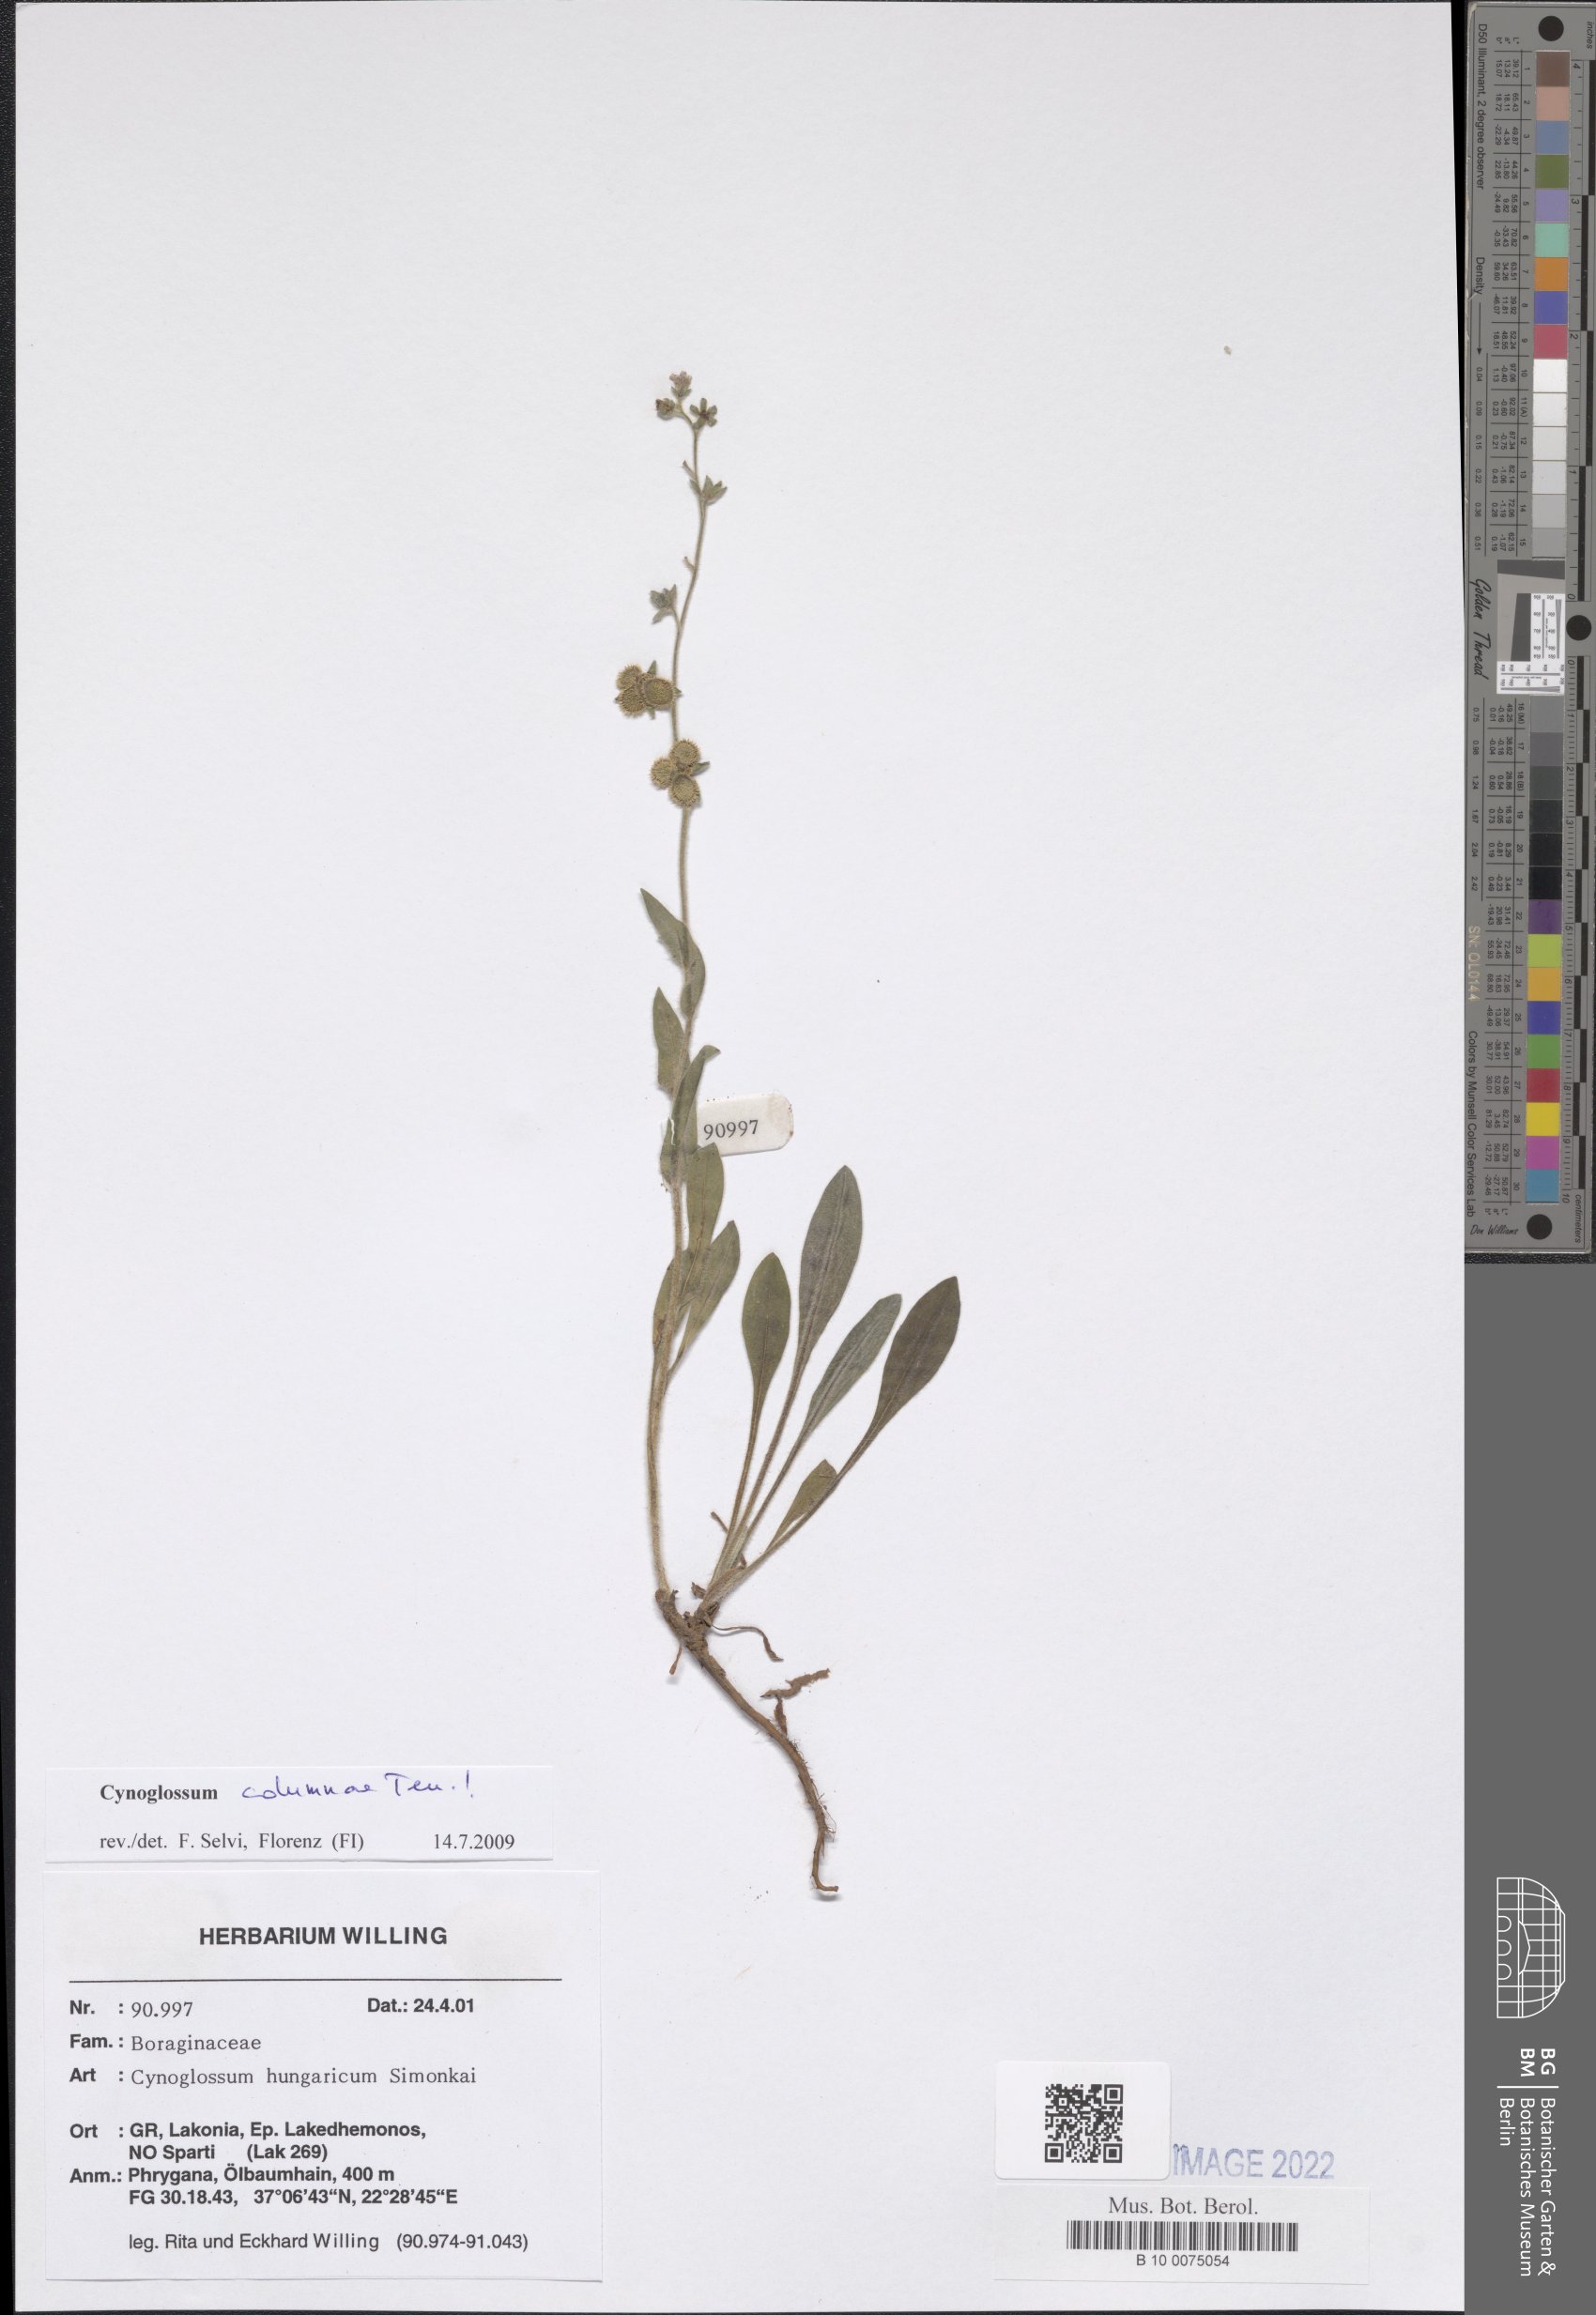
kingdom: Plantae
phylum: Tracheophyta
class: Magnoliopsida
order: Boraginales
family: Boraginaceae
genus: Rindera
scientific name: Rindera columnae
